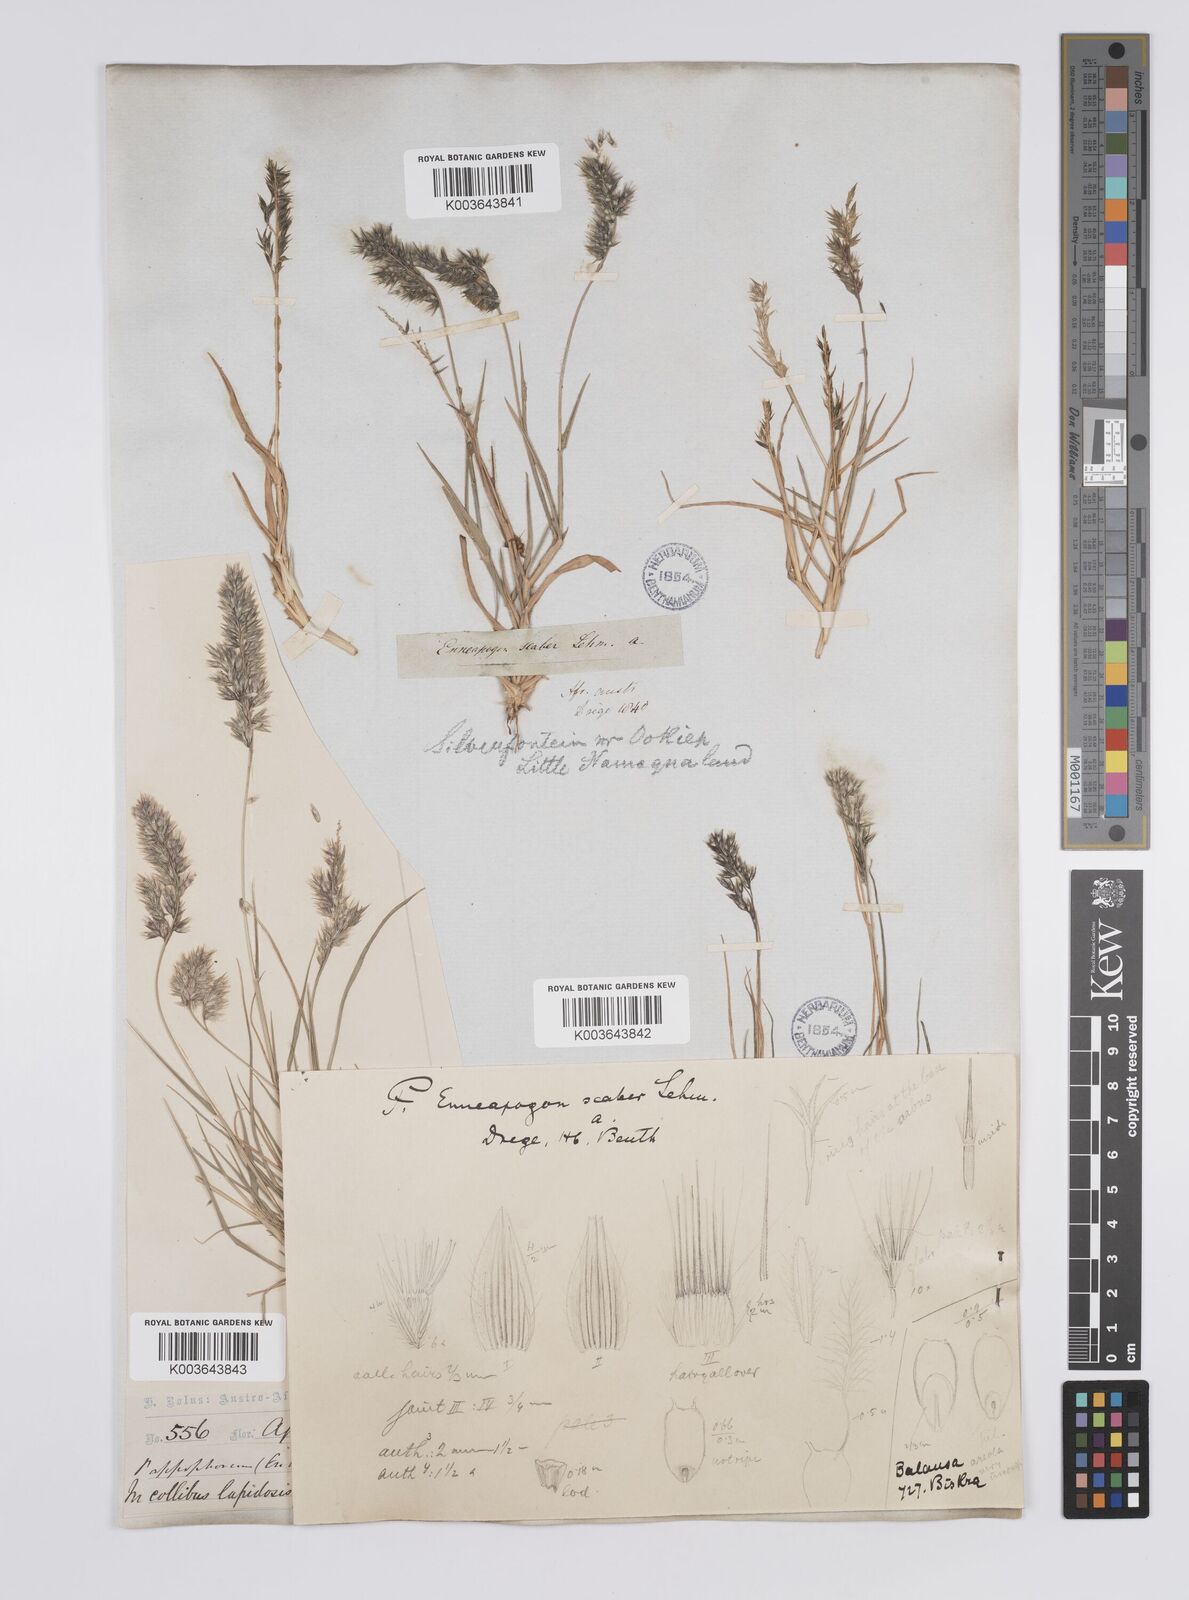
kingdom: Plantae
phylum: Tracheophyta
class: Liliopsida
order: Poales
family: Poaceae
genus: Enneapogon
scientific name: Enneapogon scaber
